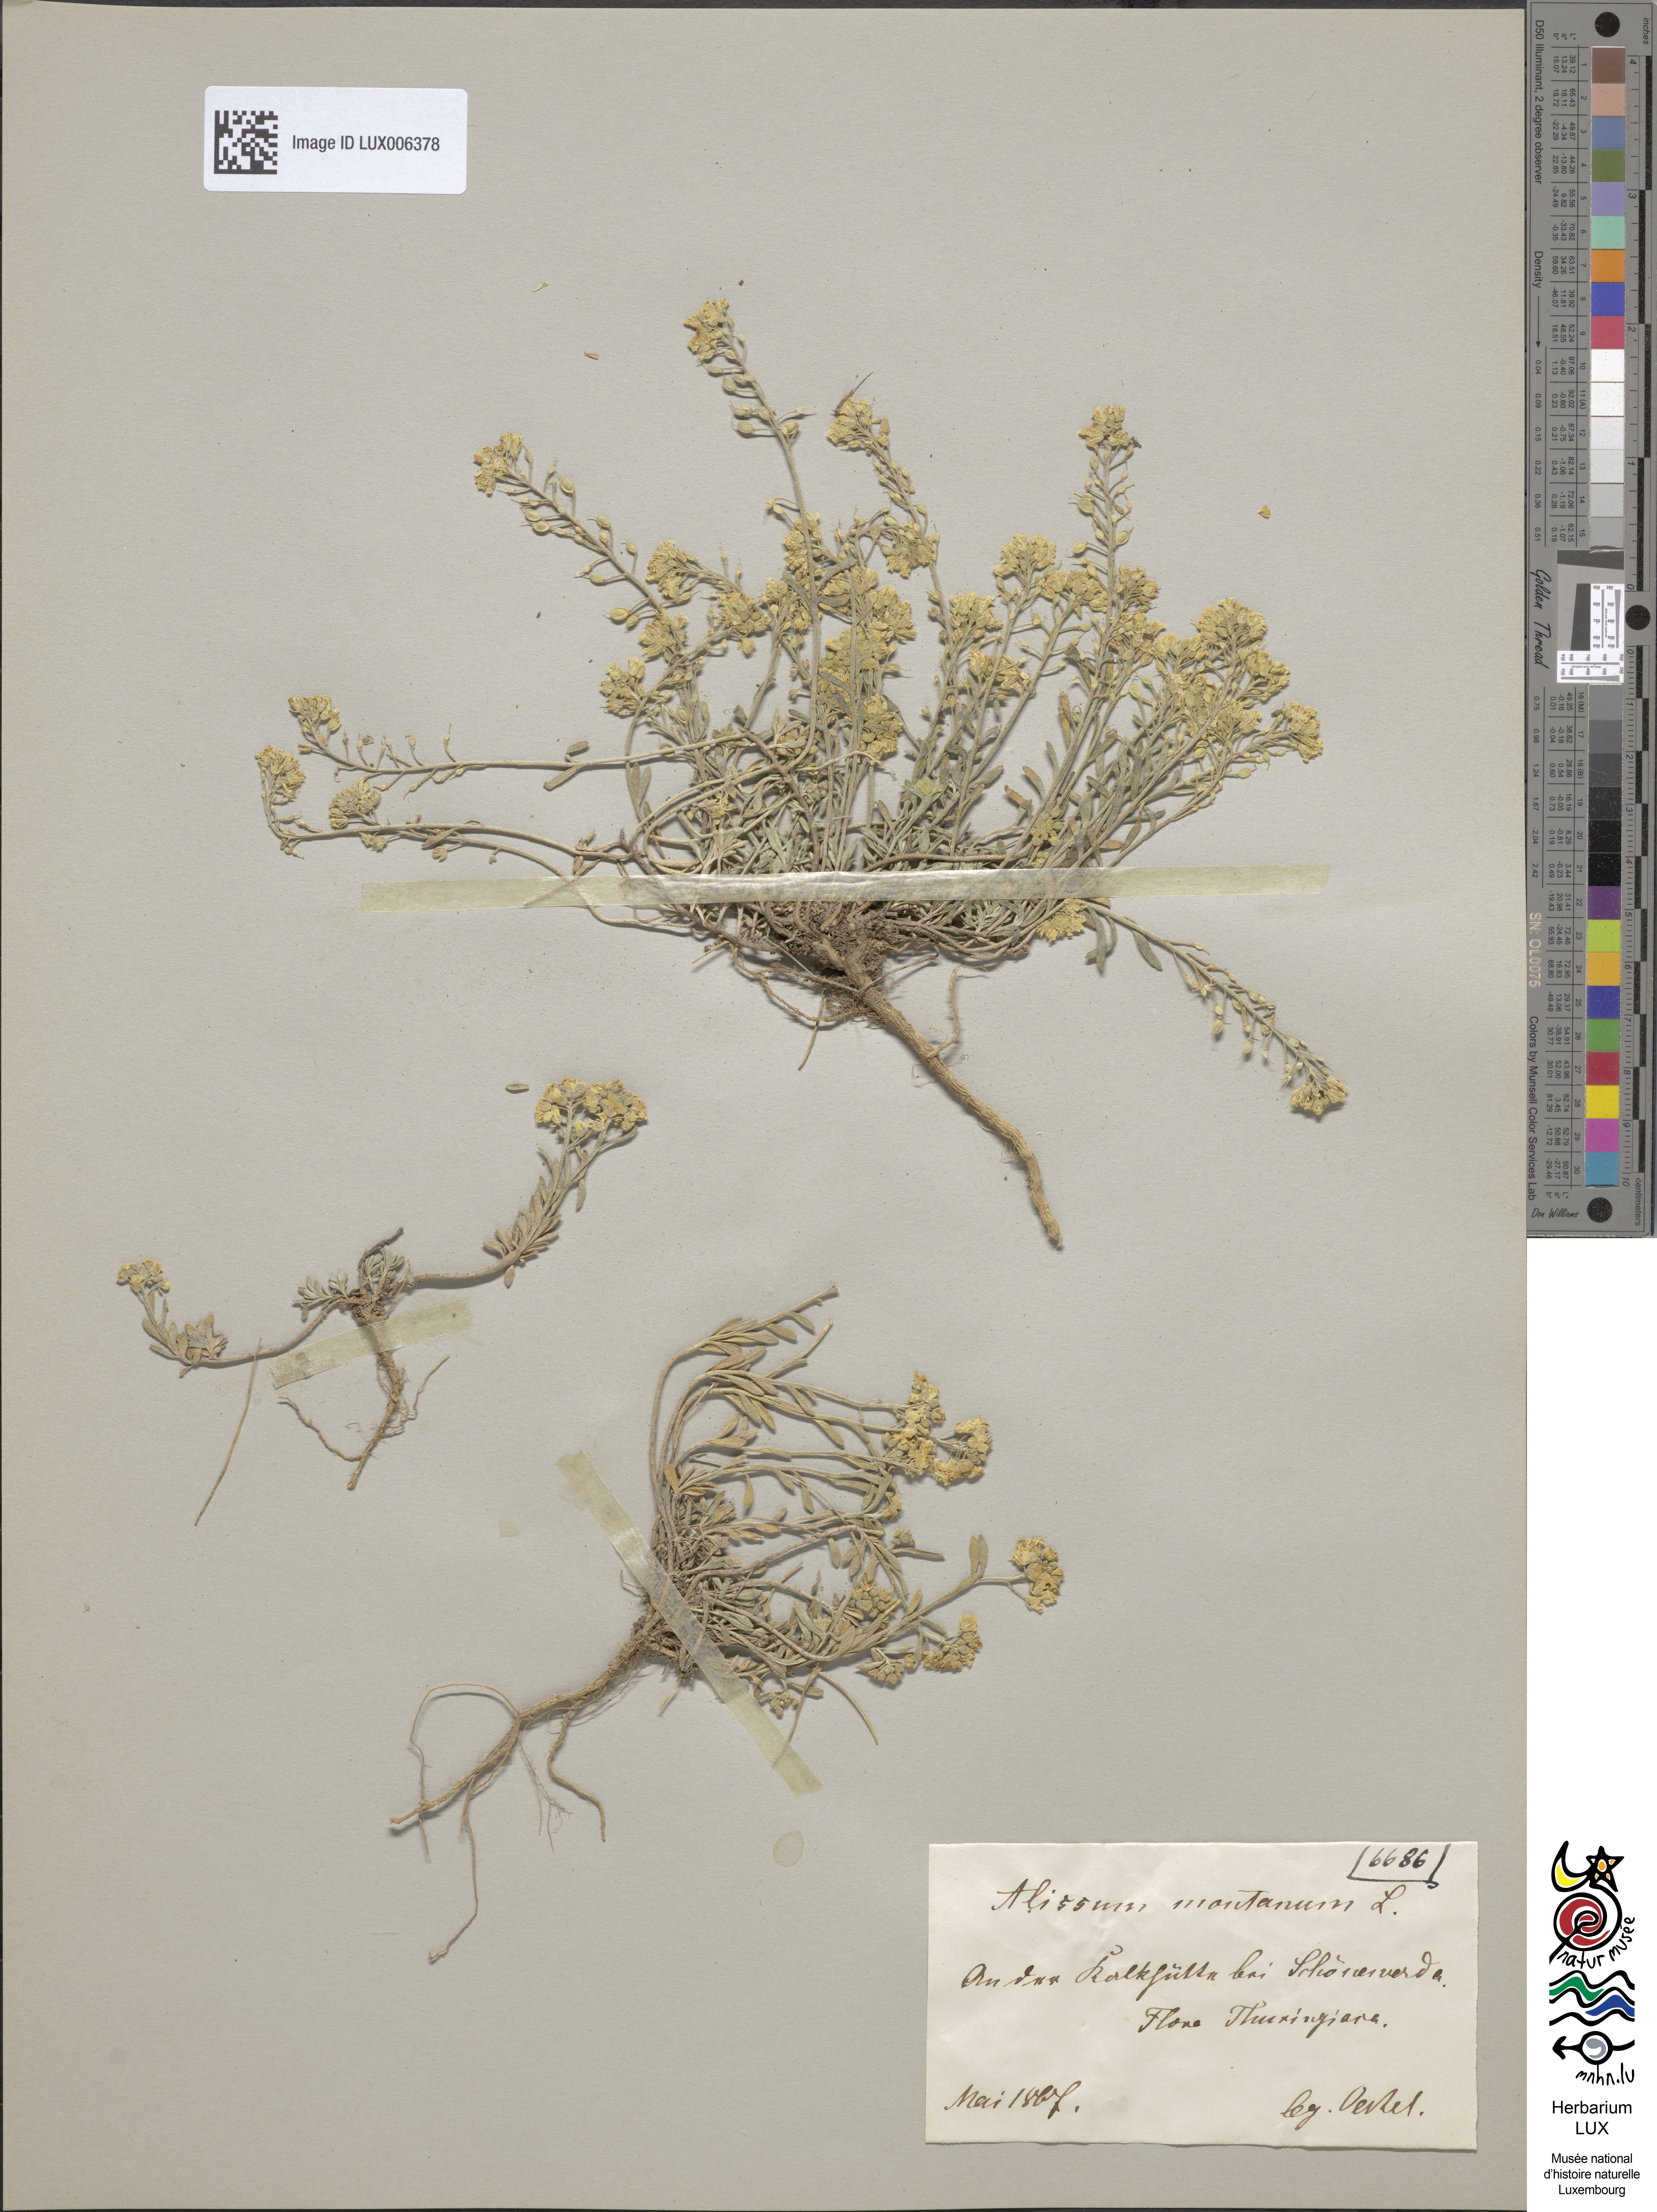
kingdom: Plantae
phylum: Tracheophyta
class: Magnoliopsida
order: Brassicales
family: Brassicaceae
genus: Alyssum
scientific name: Alyssum montanum
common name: Mountain alison
